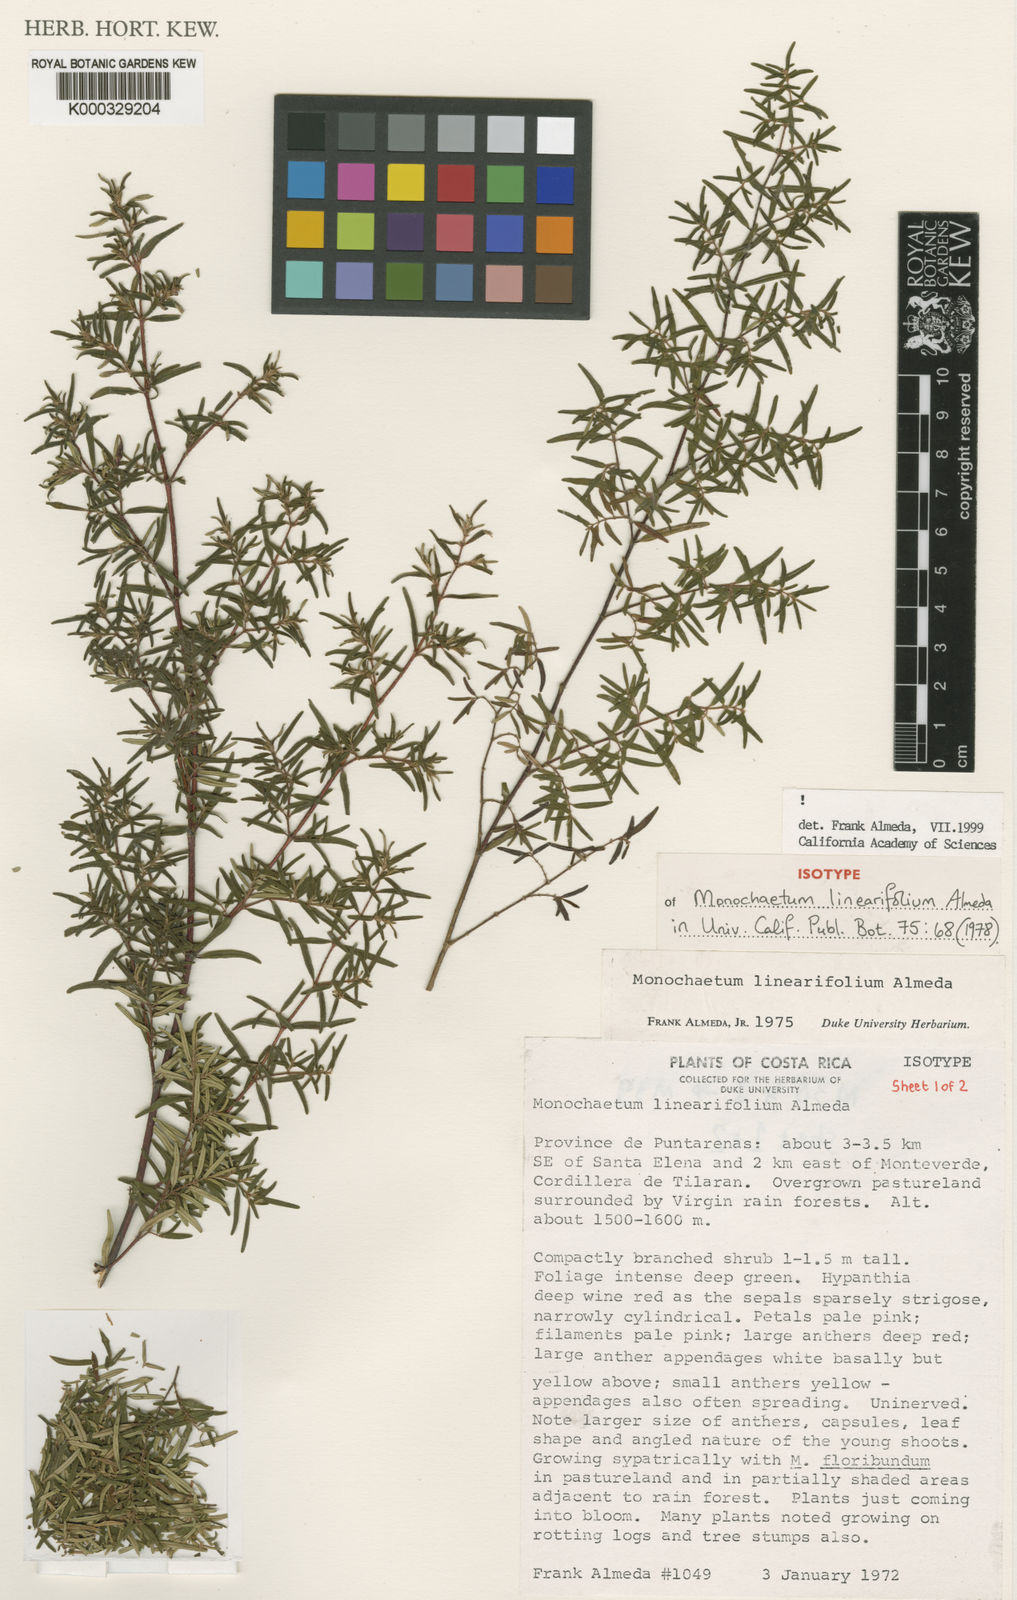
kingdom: Plantae
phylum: Tracheophyta
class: Magnoliopsida
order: Myrtales
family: Melastomataceae
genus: Monochaetum
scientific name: Monochaetum linearifolium
